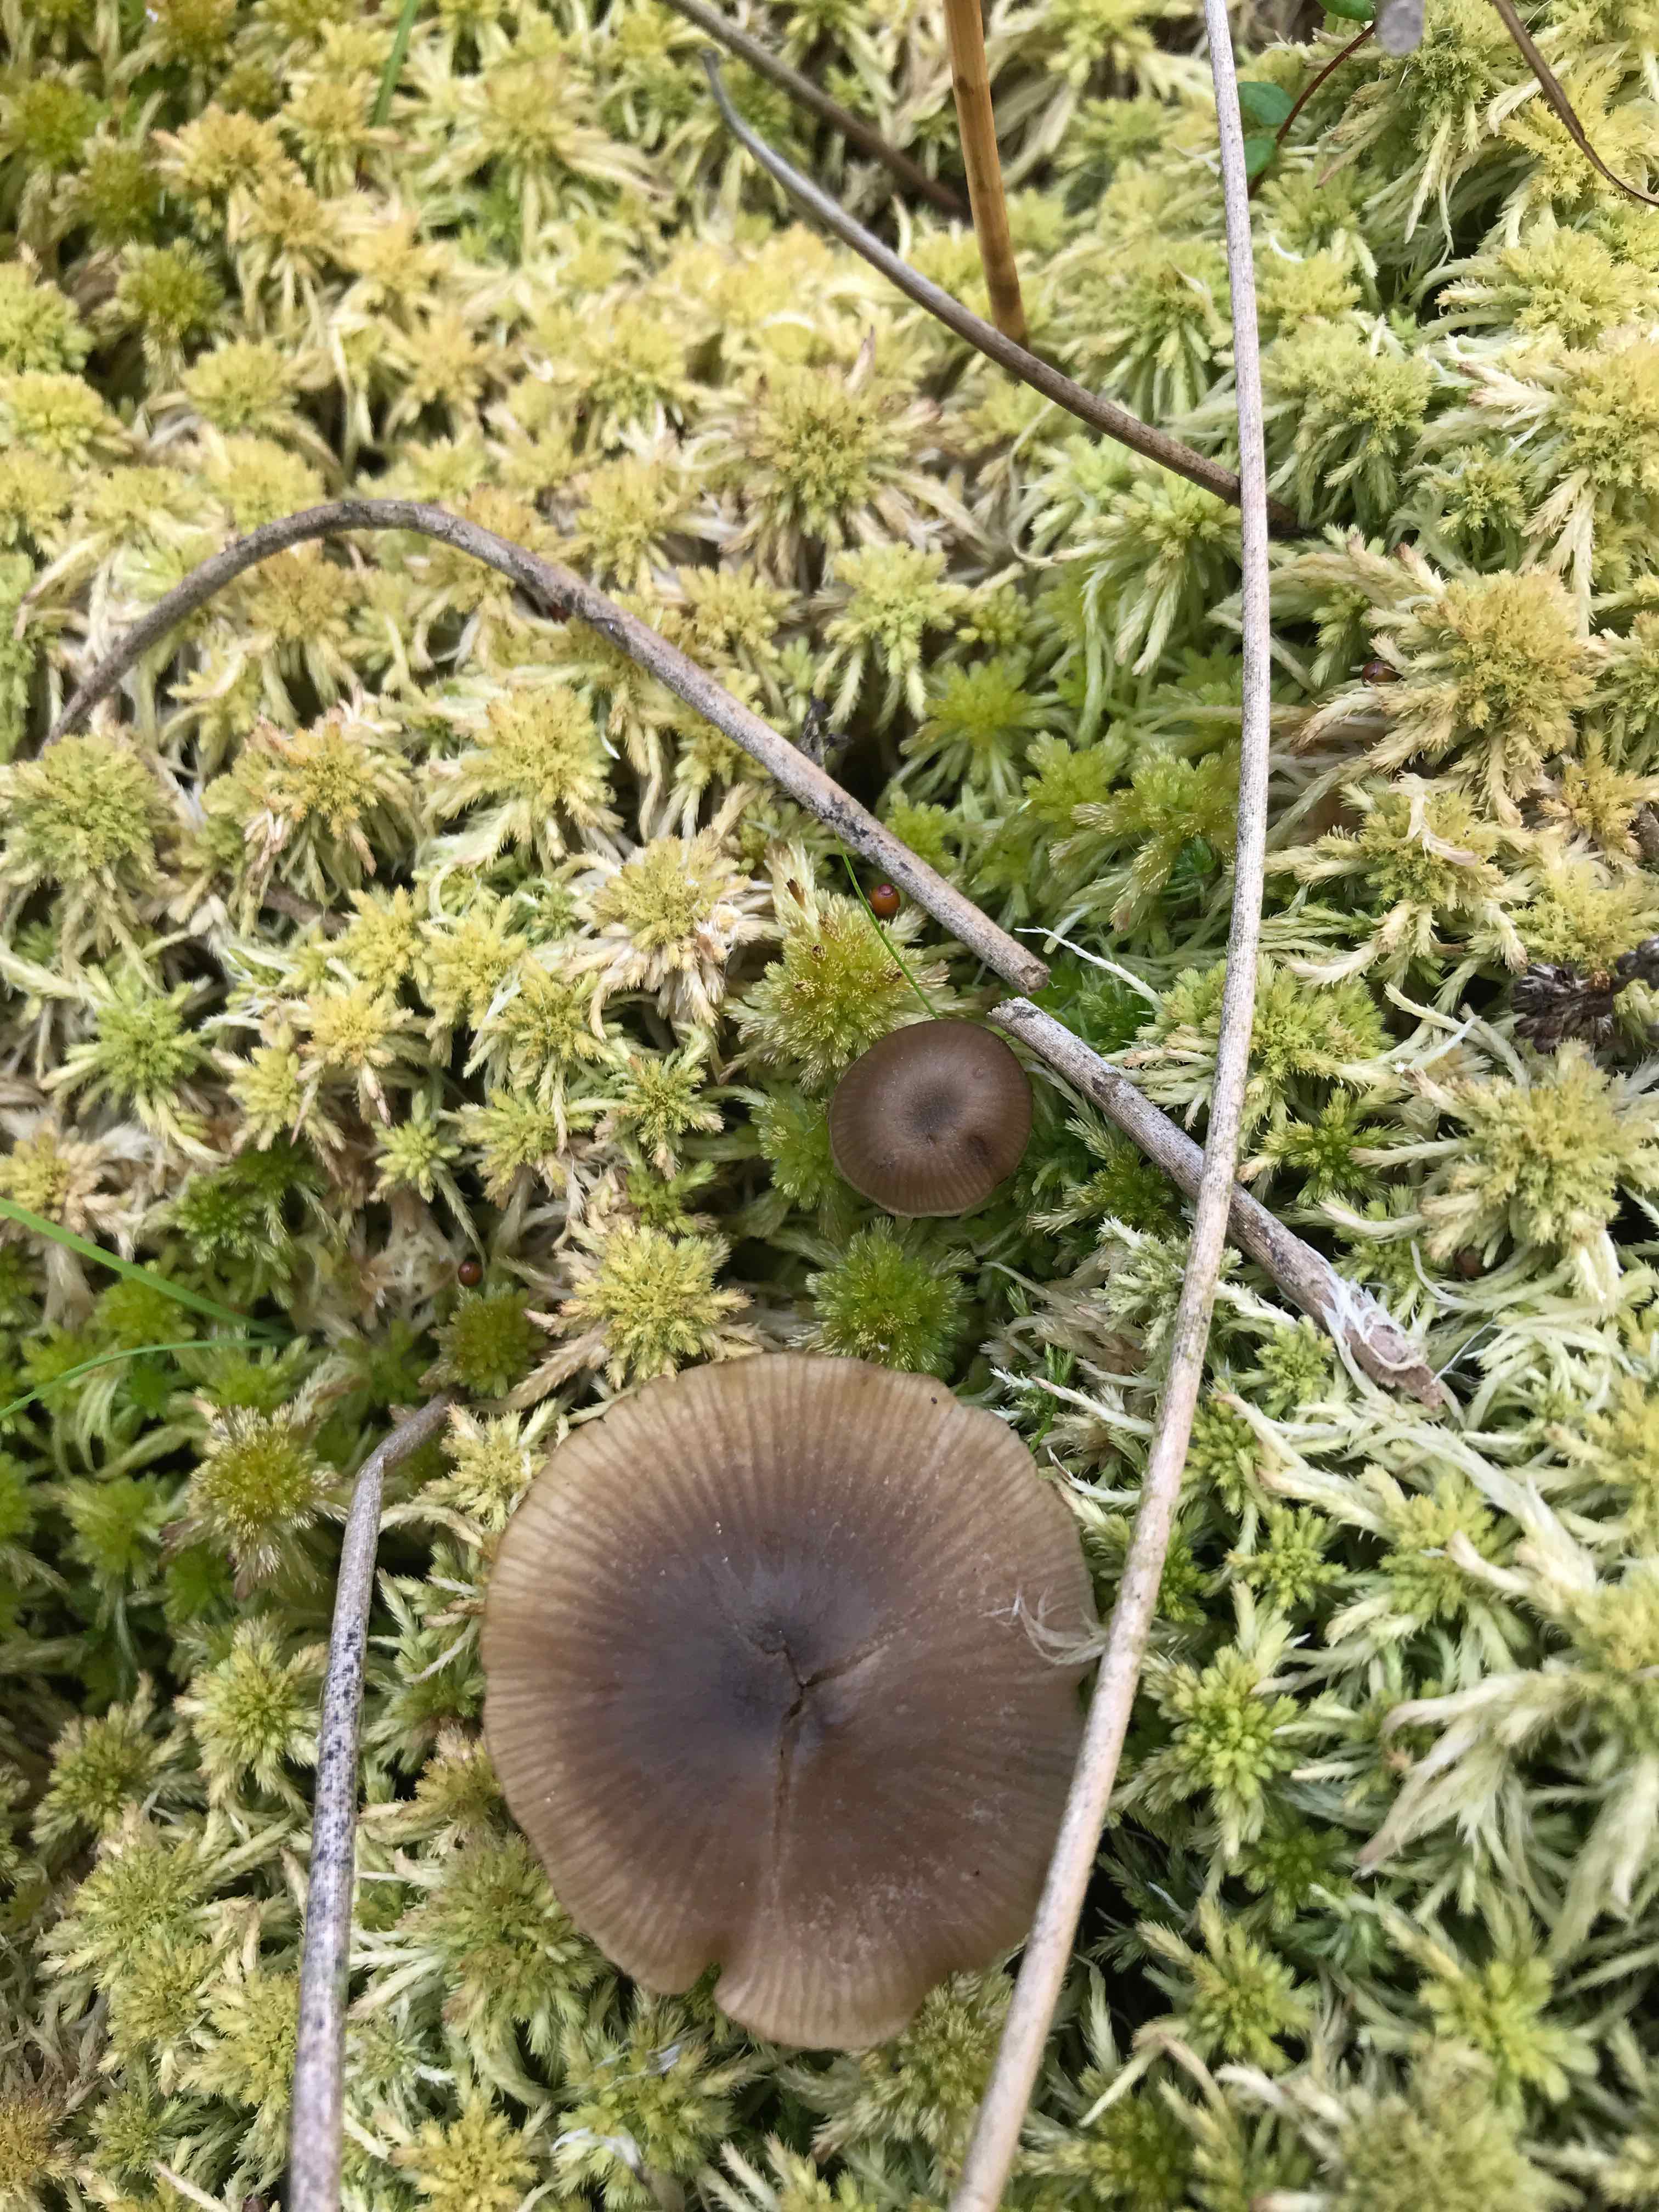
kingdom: Fungi
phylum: Basidiomycota
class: Agaricomycetes
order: Agaricales
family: Lyophyllaceae
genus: Sphagnurus
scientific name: Sphagnurus paluster
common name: tørvemos-gråblad
